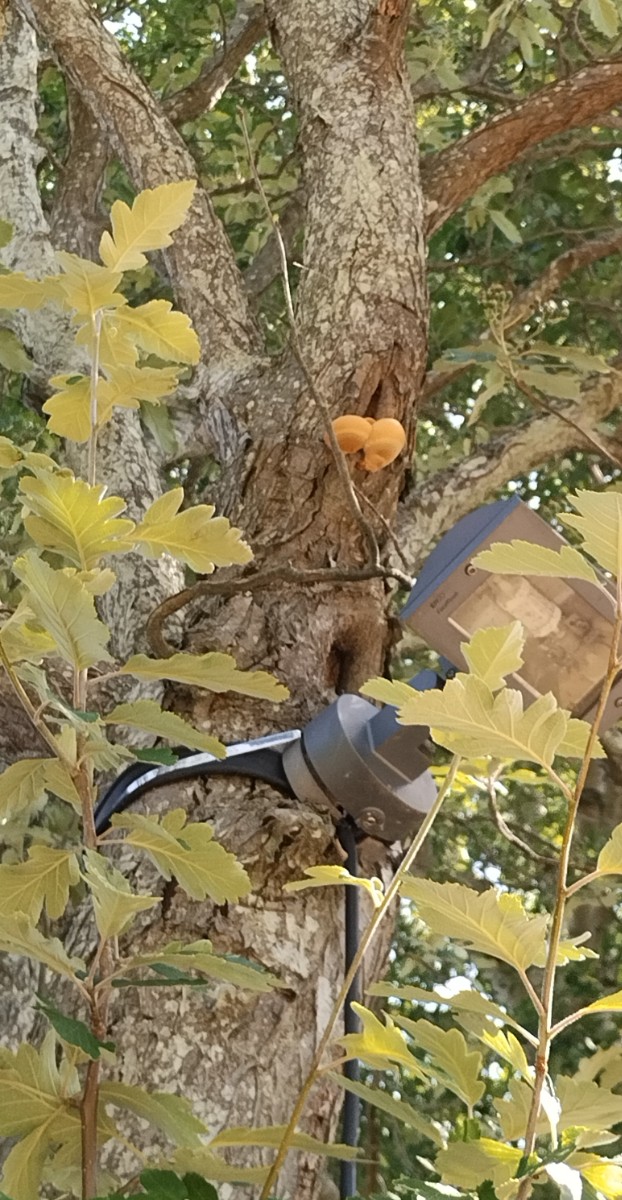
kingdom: Fungi
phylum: Basidiomycota
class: Agaricomycetes
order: Hymenochaetales
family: Hymenochaetaceae
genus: Inonotus
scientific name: Inonotus hispidus
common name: børstehåret spejlporesvamp
